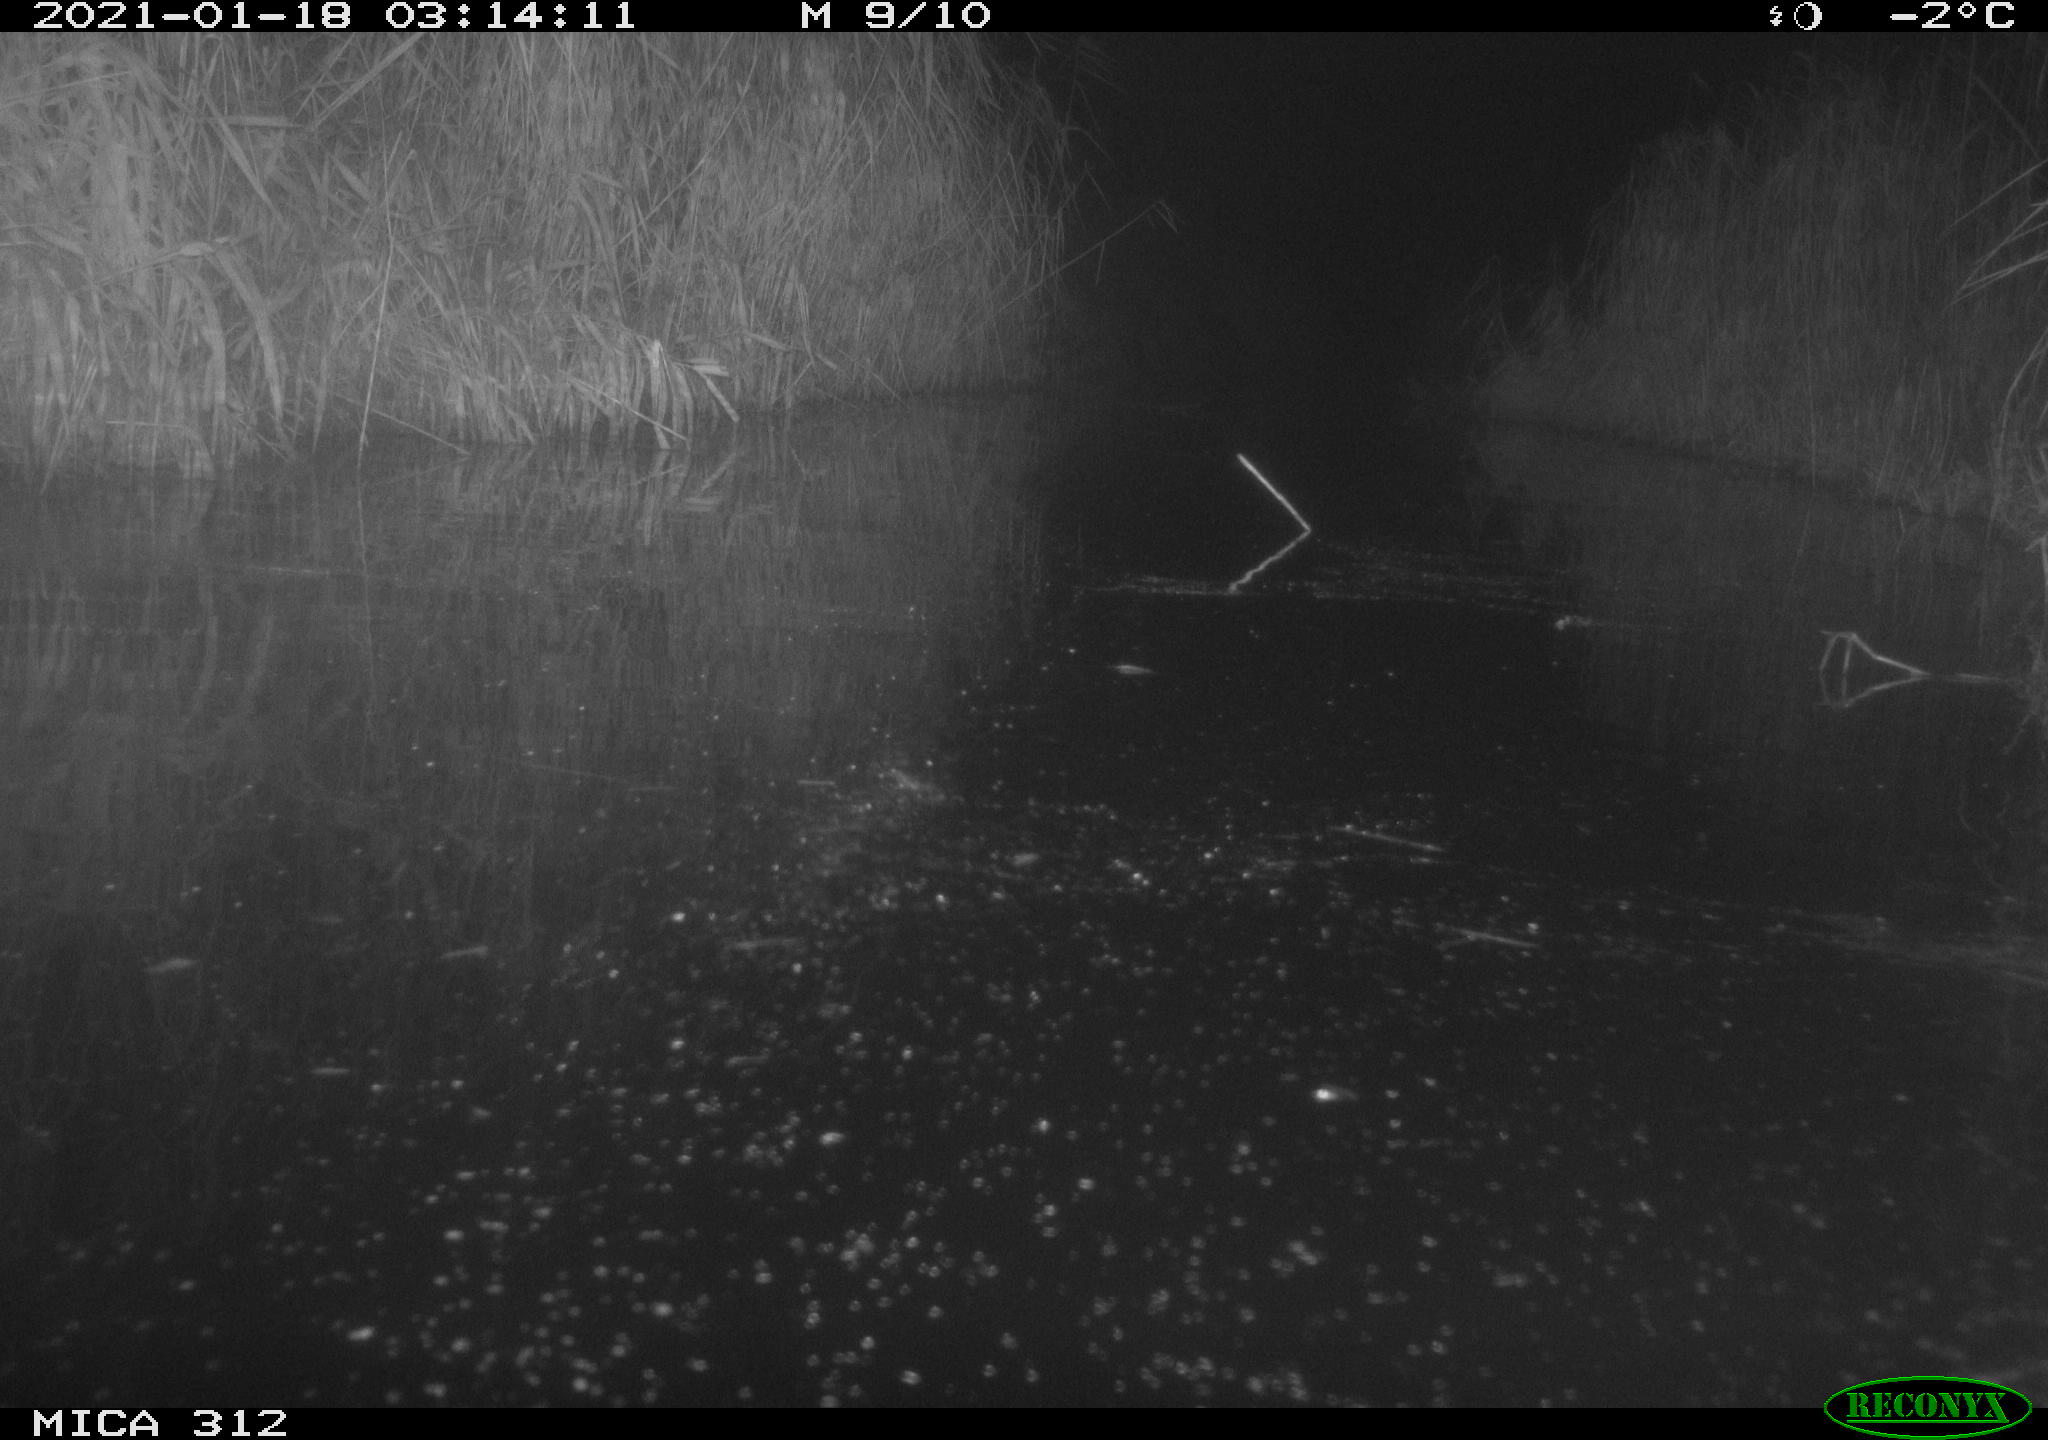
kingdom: Animalia
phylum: Chordata
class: Mammalia
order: Rodentia
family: Muridae
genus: Rattus
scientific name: Rattus norvegicus
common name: Brown rat
